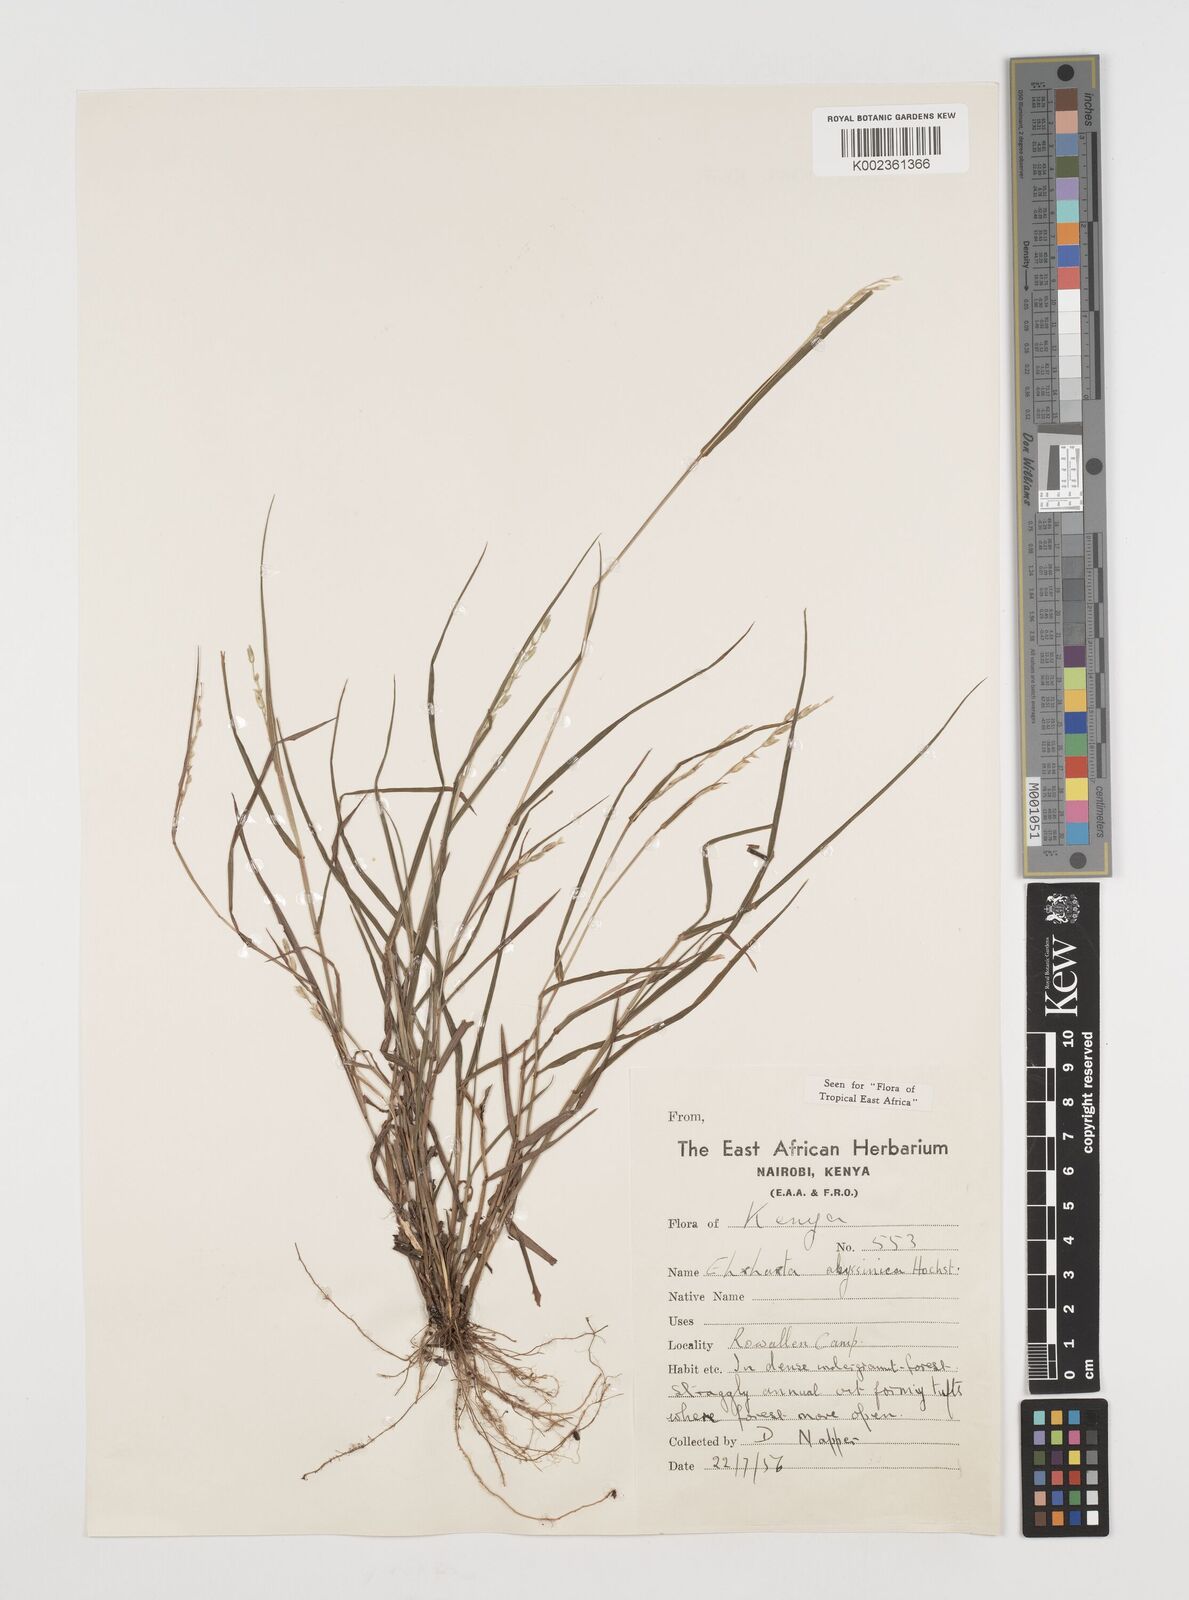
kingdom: Plantae
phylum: Tracheophyta
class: Liliopsida
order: Poales
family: Poaceae
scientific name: Poaceae
